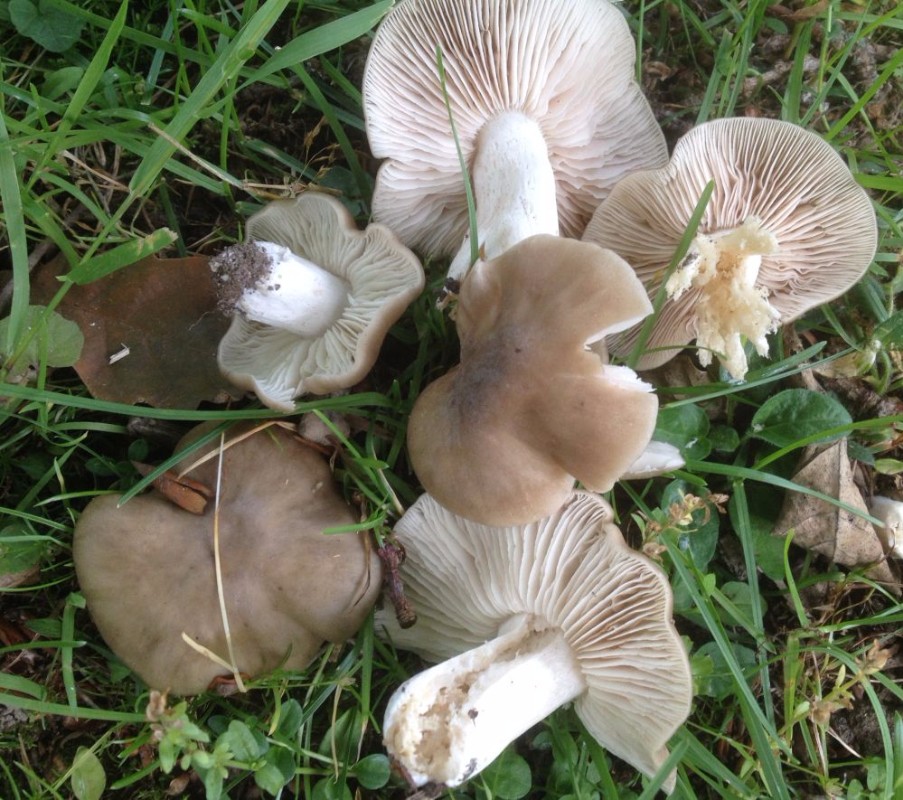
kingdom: Fungi
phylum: Basidiomycota
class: Agaricomycetes
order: Agaricales
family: Entolomataceae
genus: Entoloma
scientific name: Entoloma lividoalbum
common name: lysstokket rødblad
